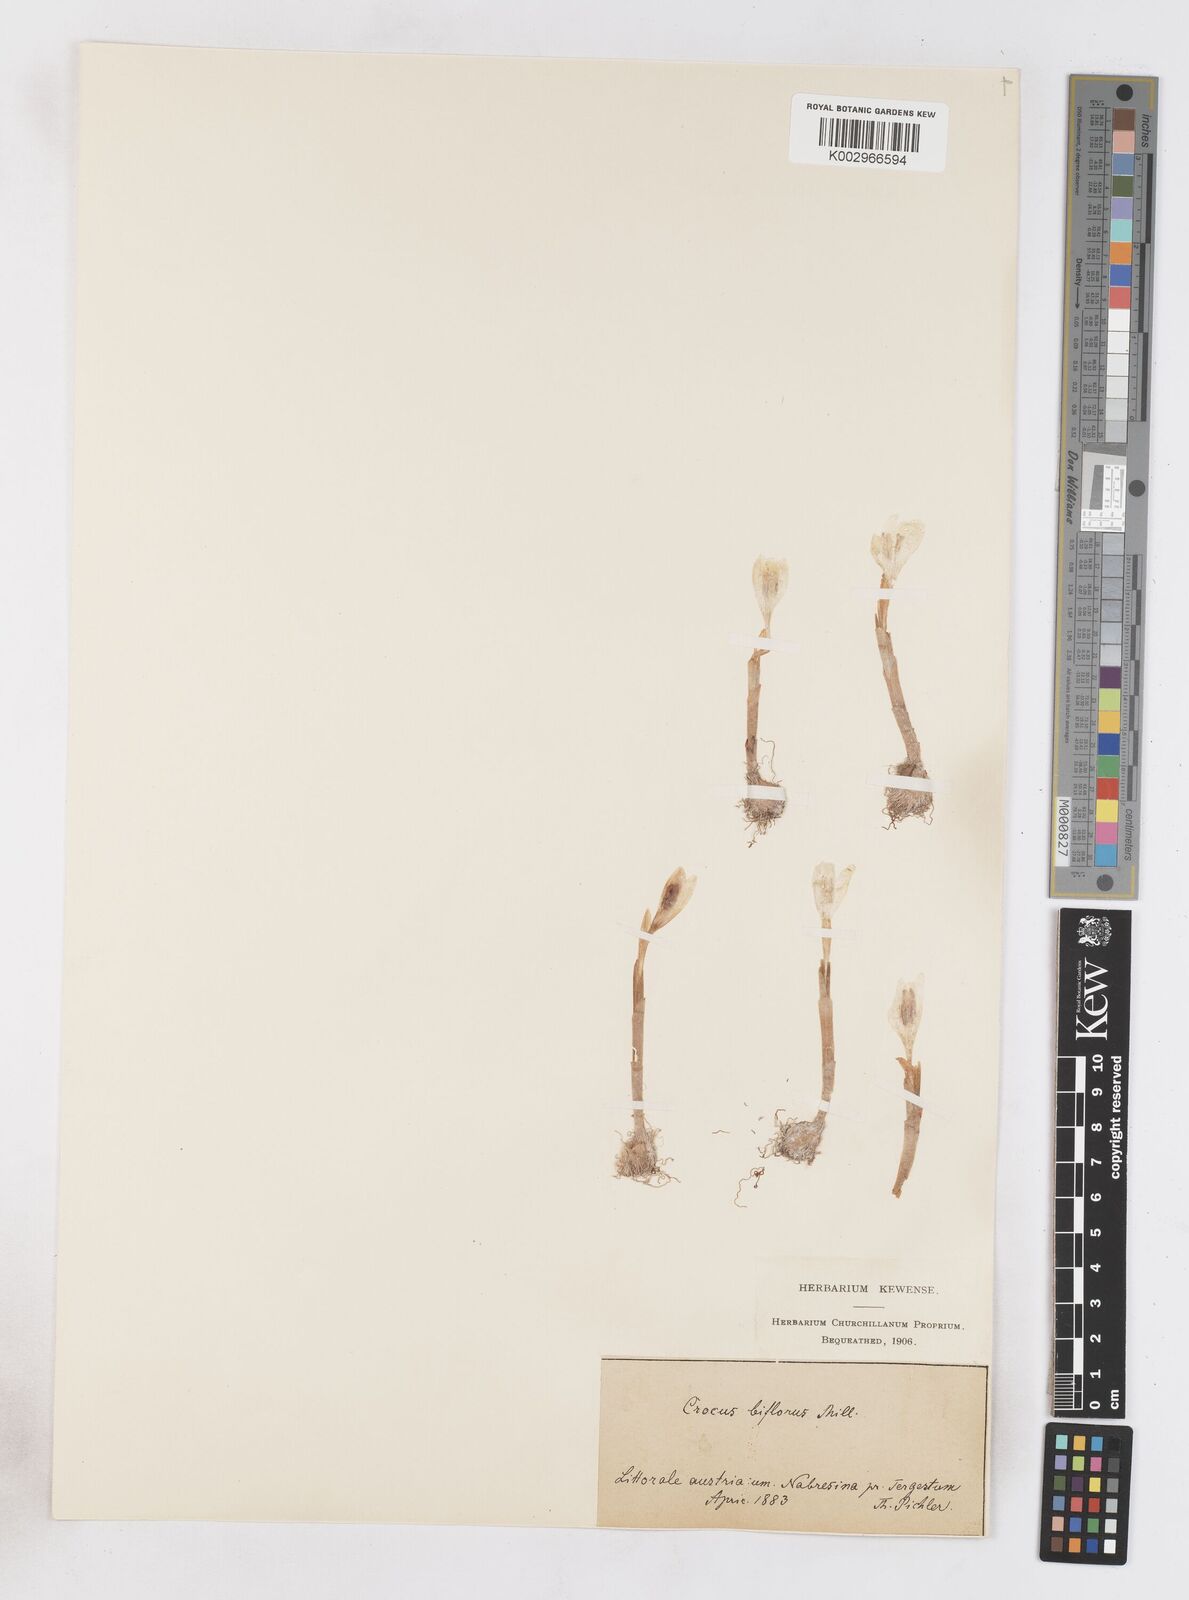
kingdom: Plantae
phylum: Tracheophyta
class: Liliopsida
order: Asparagales
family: Iridaceae
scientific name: Iridaceae
